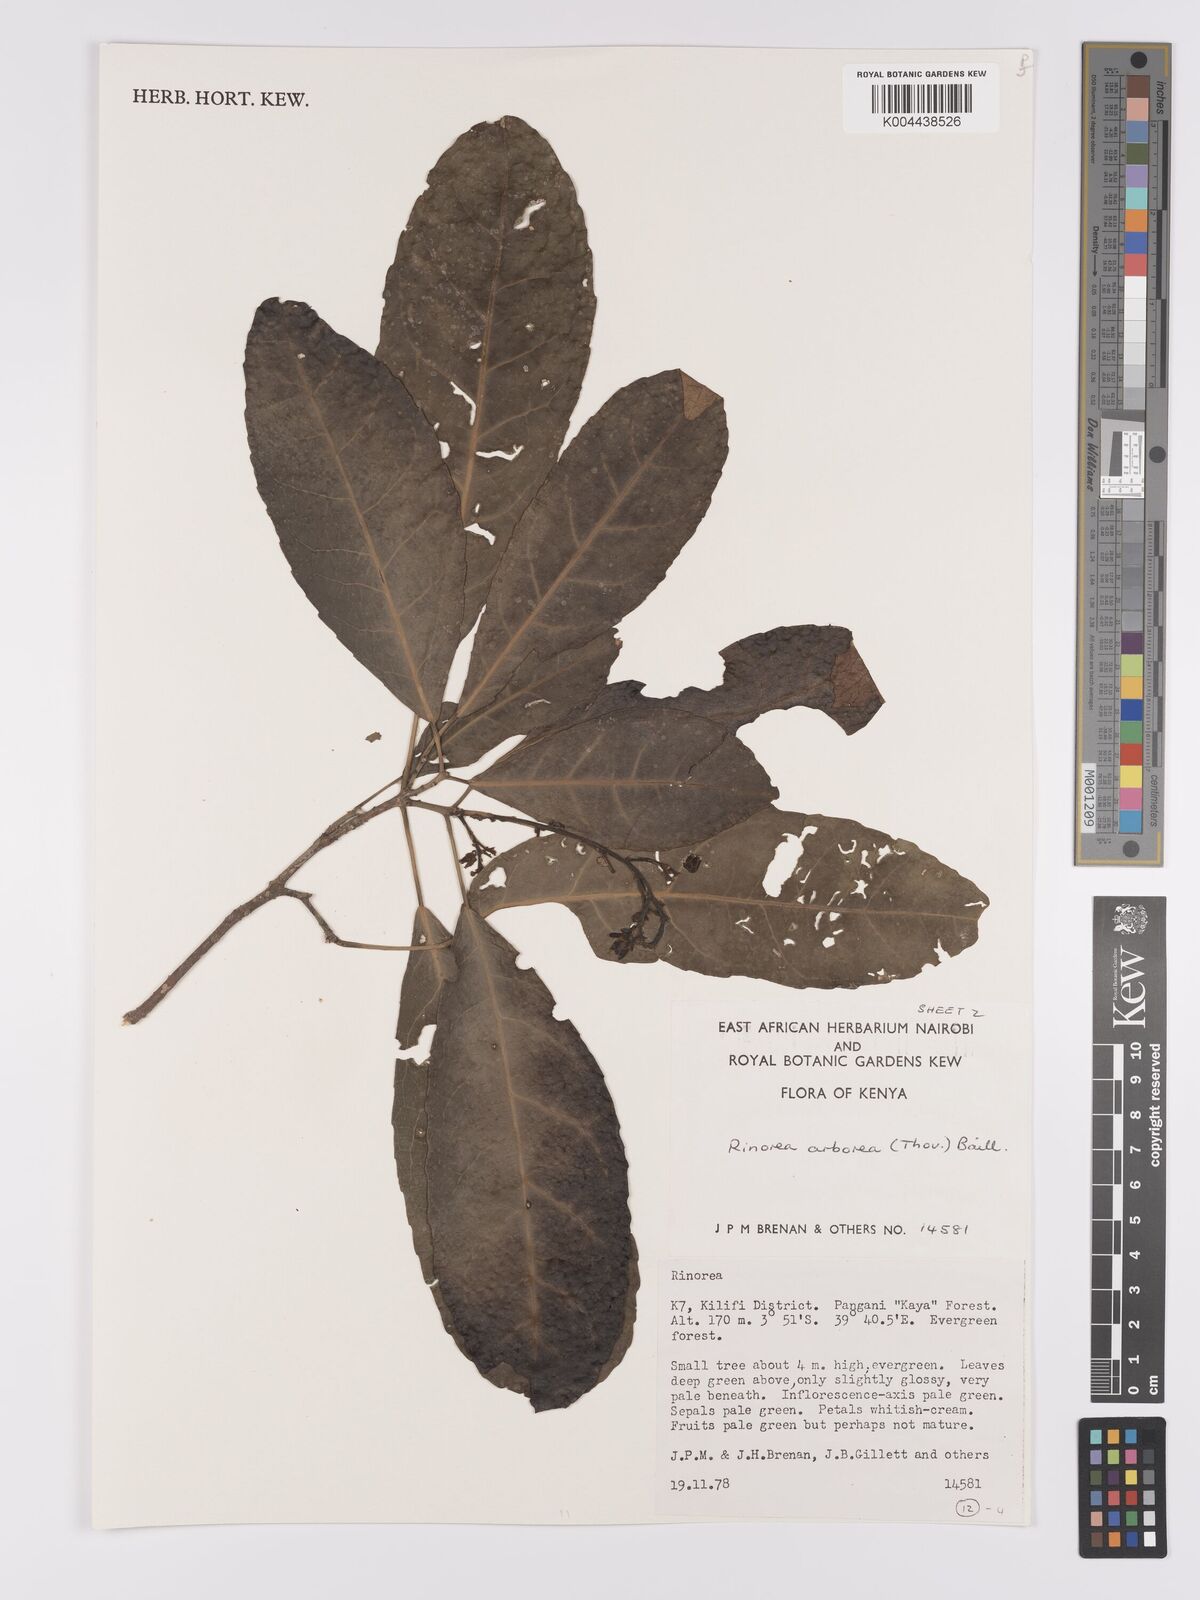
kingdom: Plantae
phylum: Tracheophyta
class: Magnoliopsida
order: Malpighiales
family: Violaceae
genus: Rinorea
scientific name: Rinorea arborea
